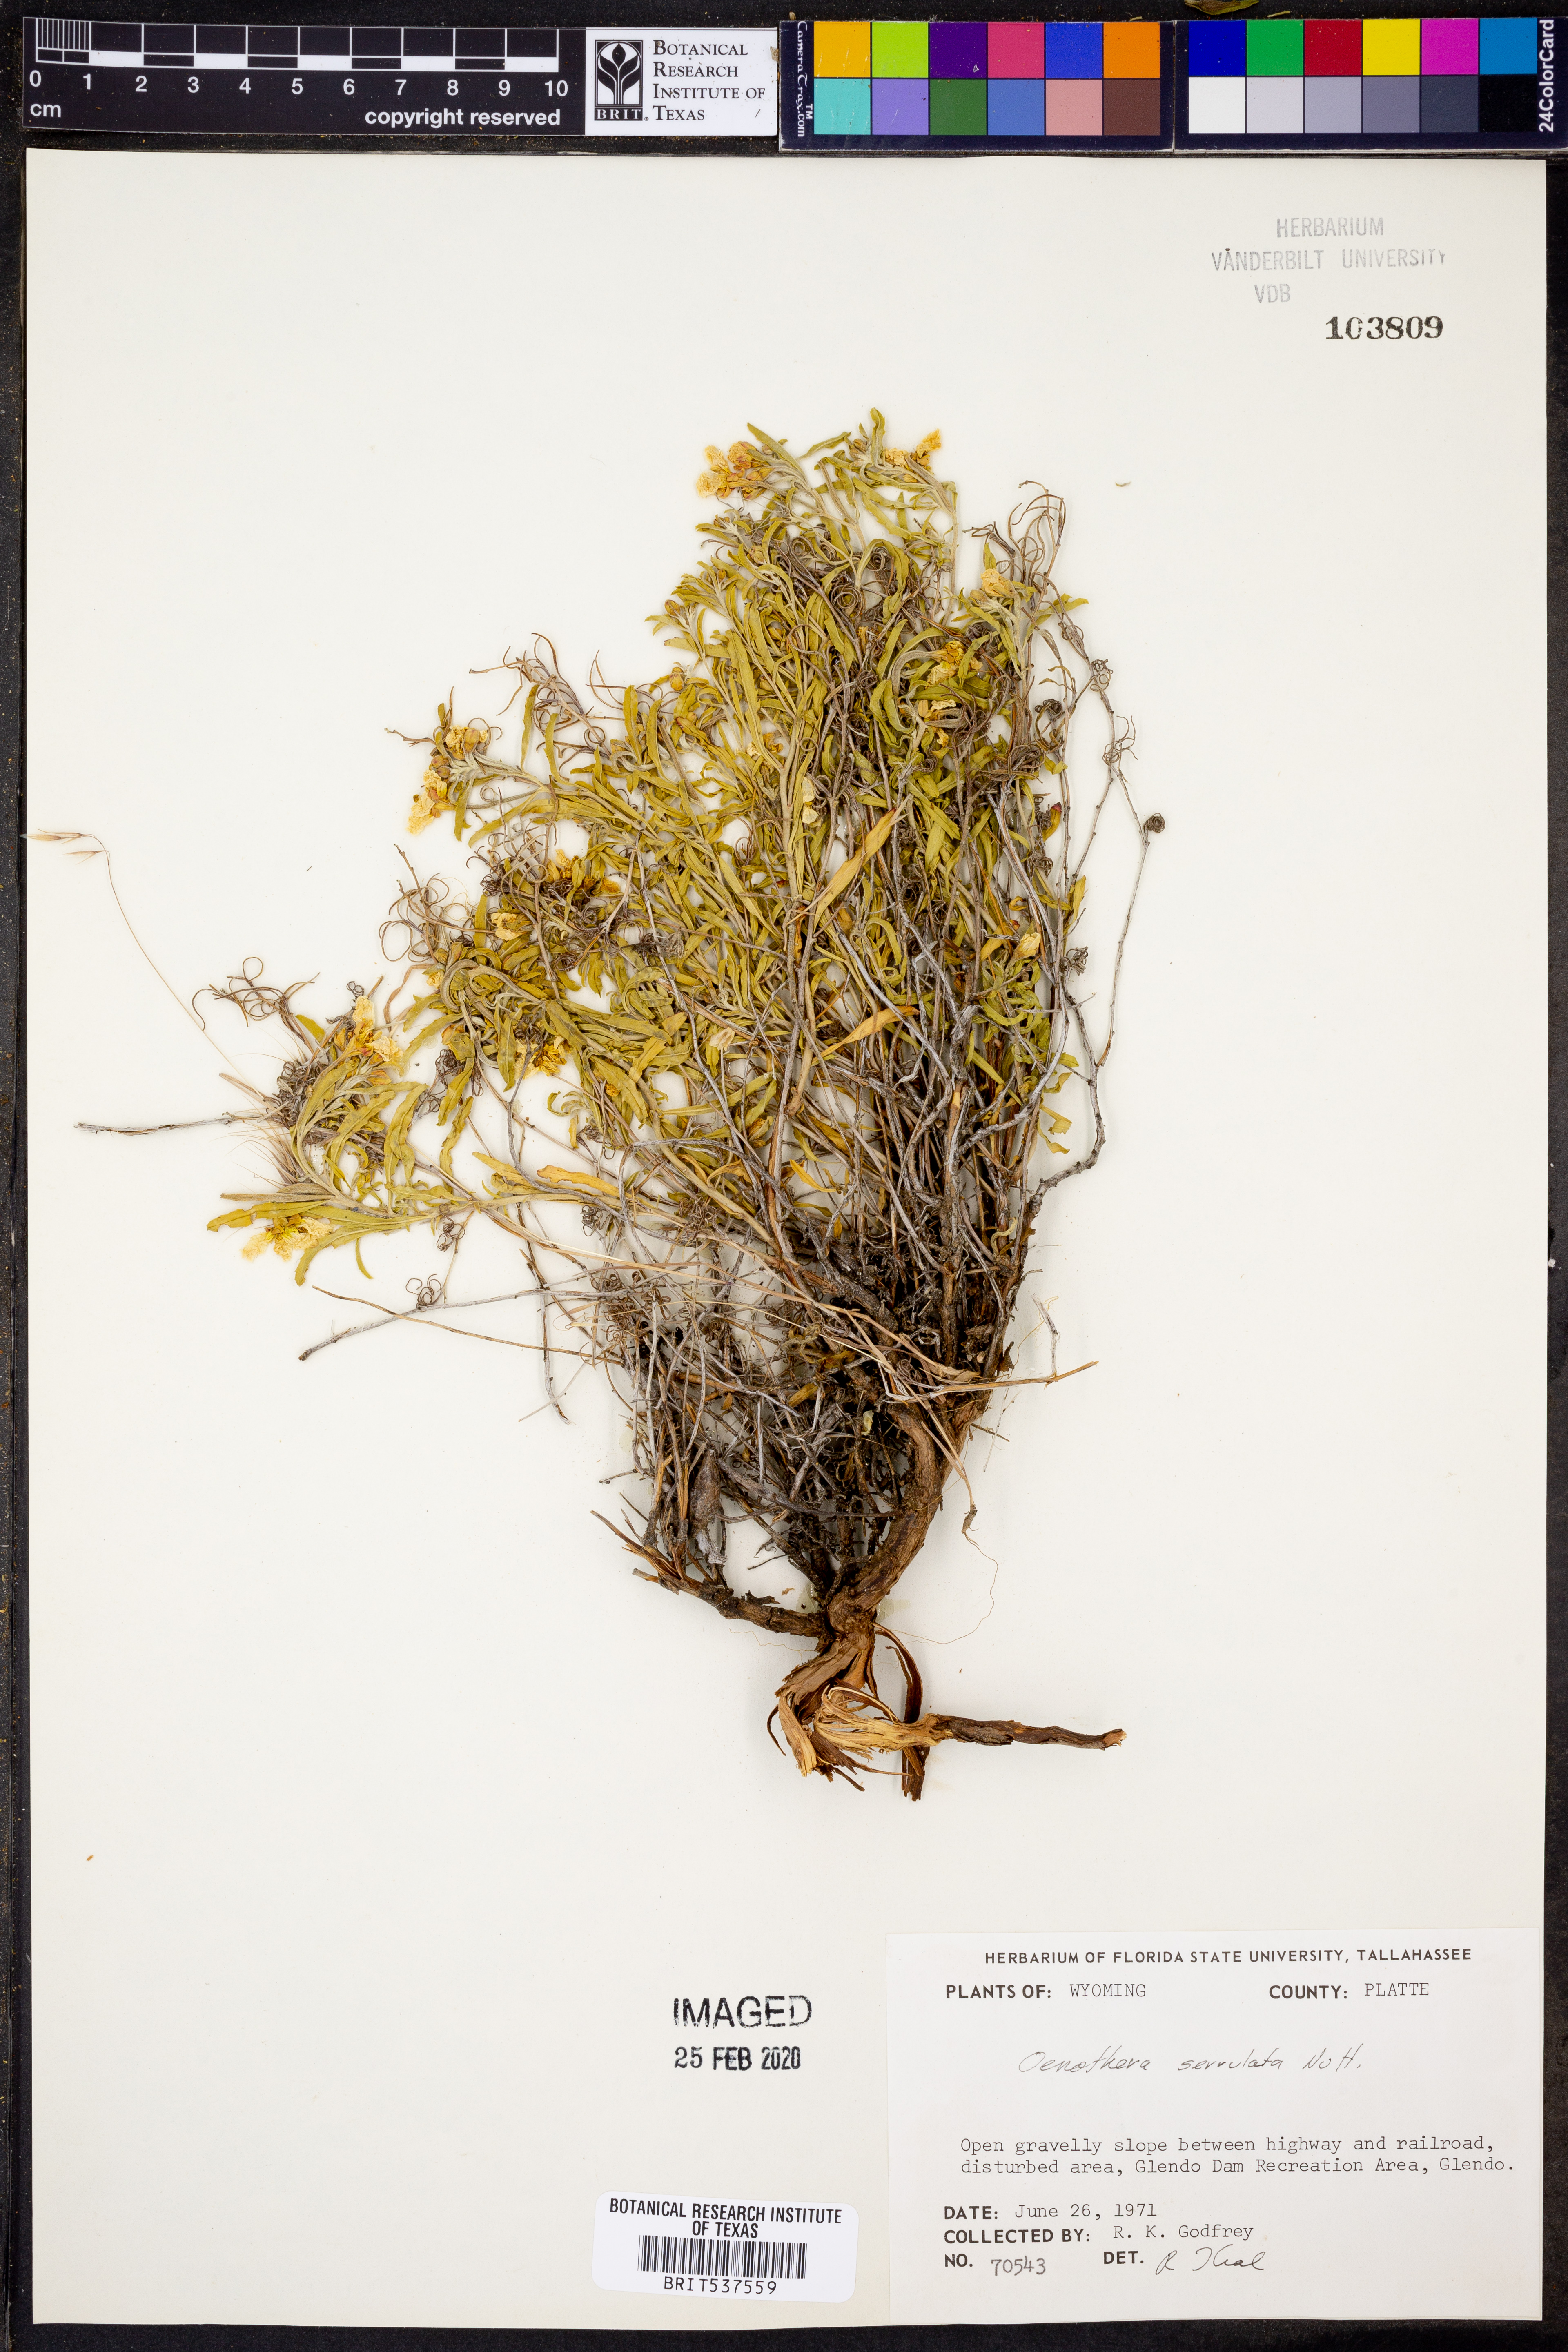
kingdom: Plantae
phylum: Tracheophyta
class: Magnoliopsida
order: Myrtales
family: Onagraceae
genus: Oenothera
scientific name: Oenothera serrulata
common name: Half-shrub calylophus
